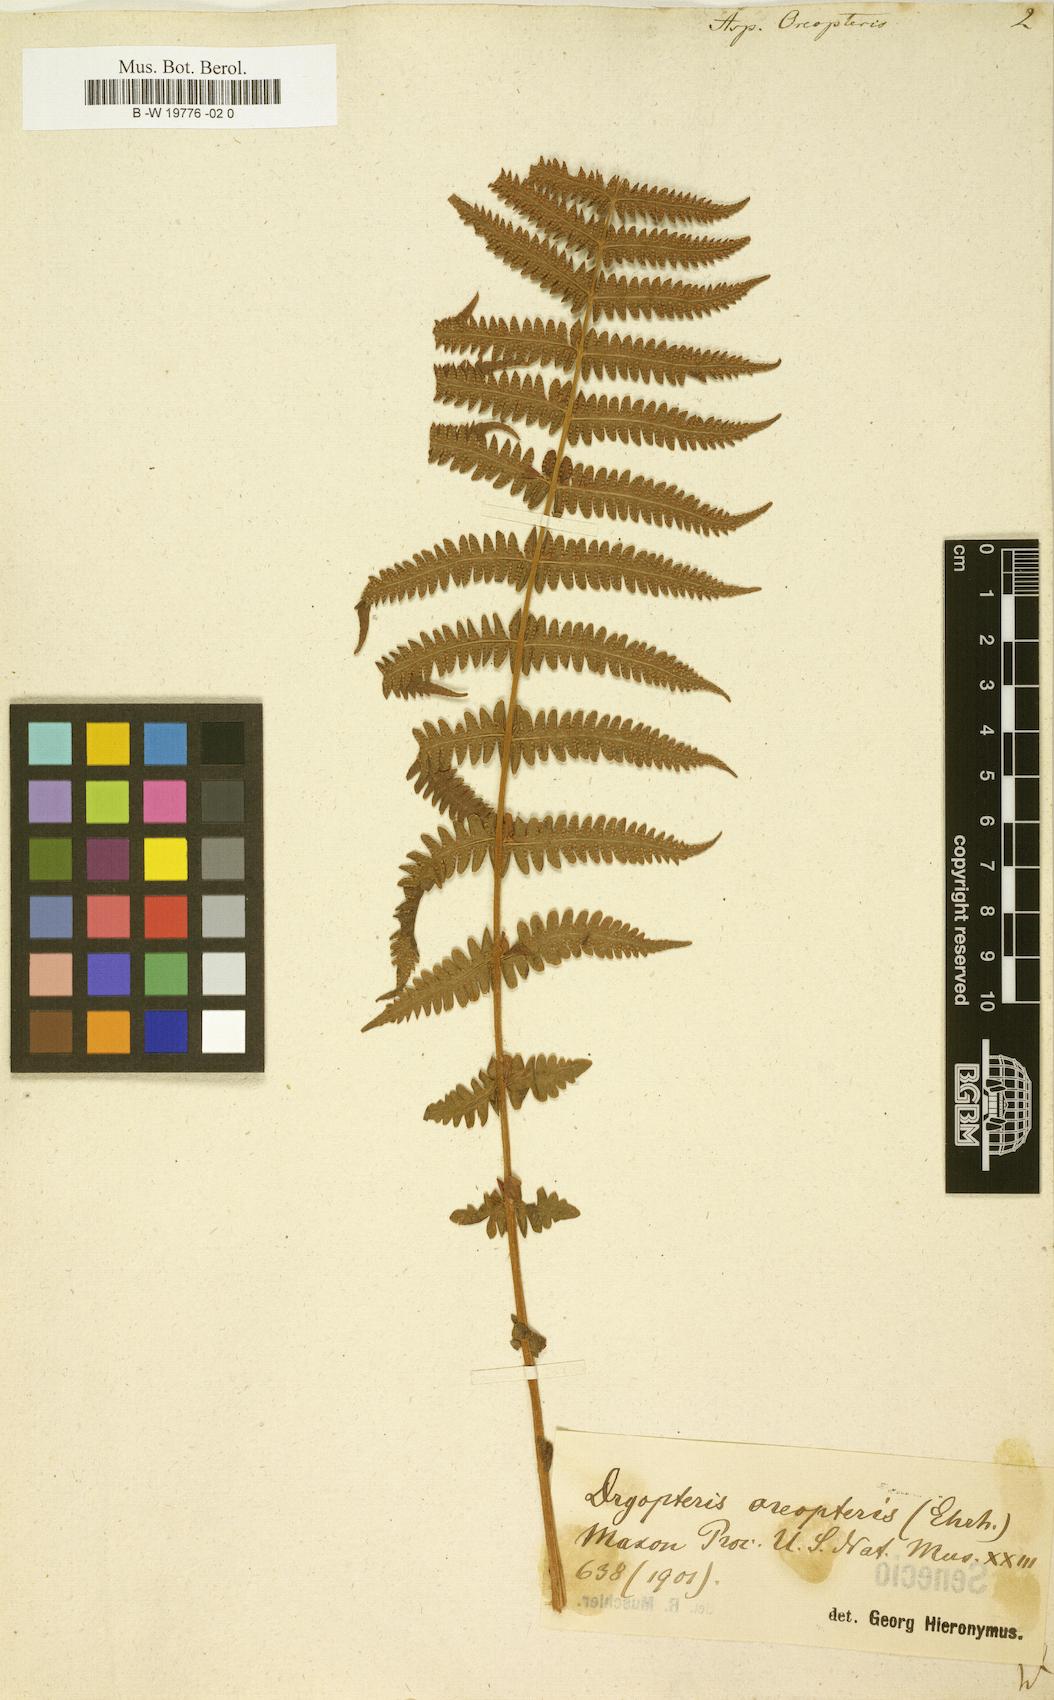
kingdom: Plantae
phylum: Tracheophyta
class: Polypodiopsida
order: Polypodiales
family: Thelypteridaceae
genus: Oreopteris
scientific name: Oreopteris limbosperma
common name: Lemon-scented fern
